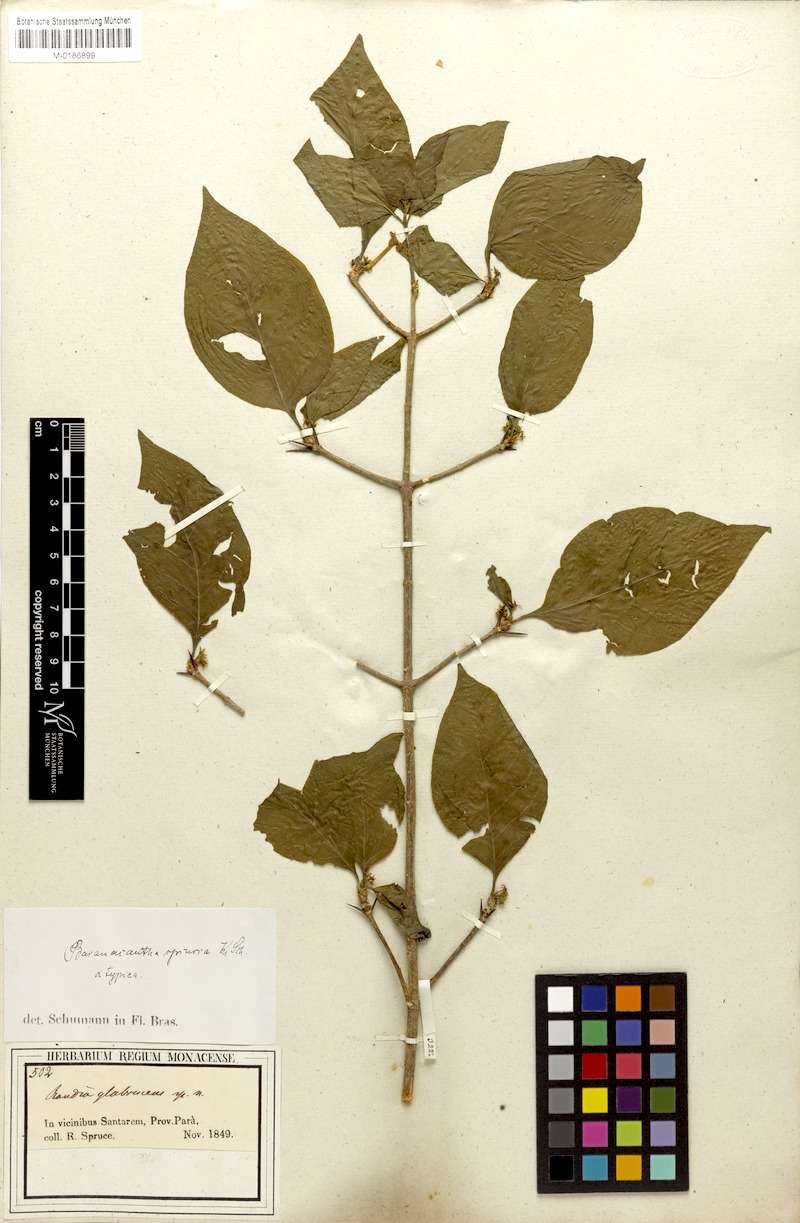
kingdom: Plantae
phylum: Tracheophyta
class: Magnoliopsida
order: Gentianales
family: Rubiaceae
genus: Randia
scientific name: Randia armata
